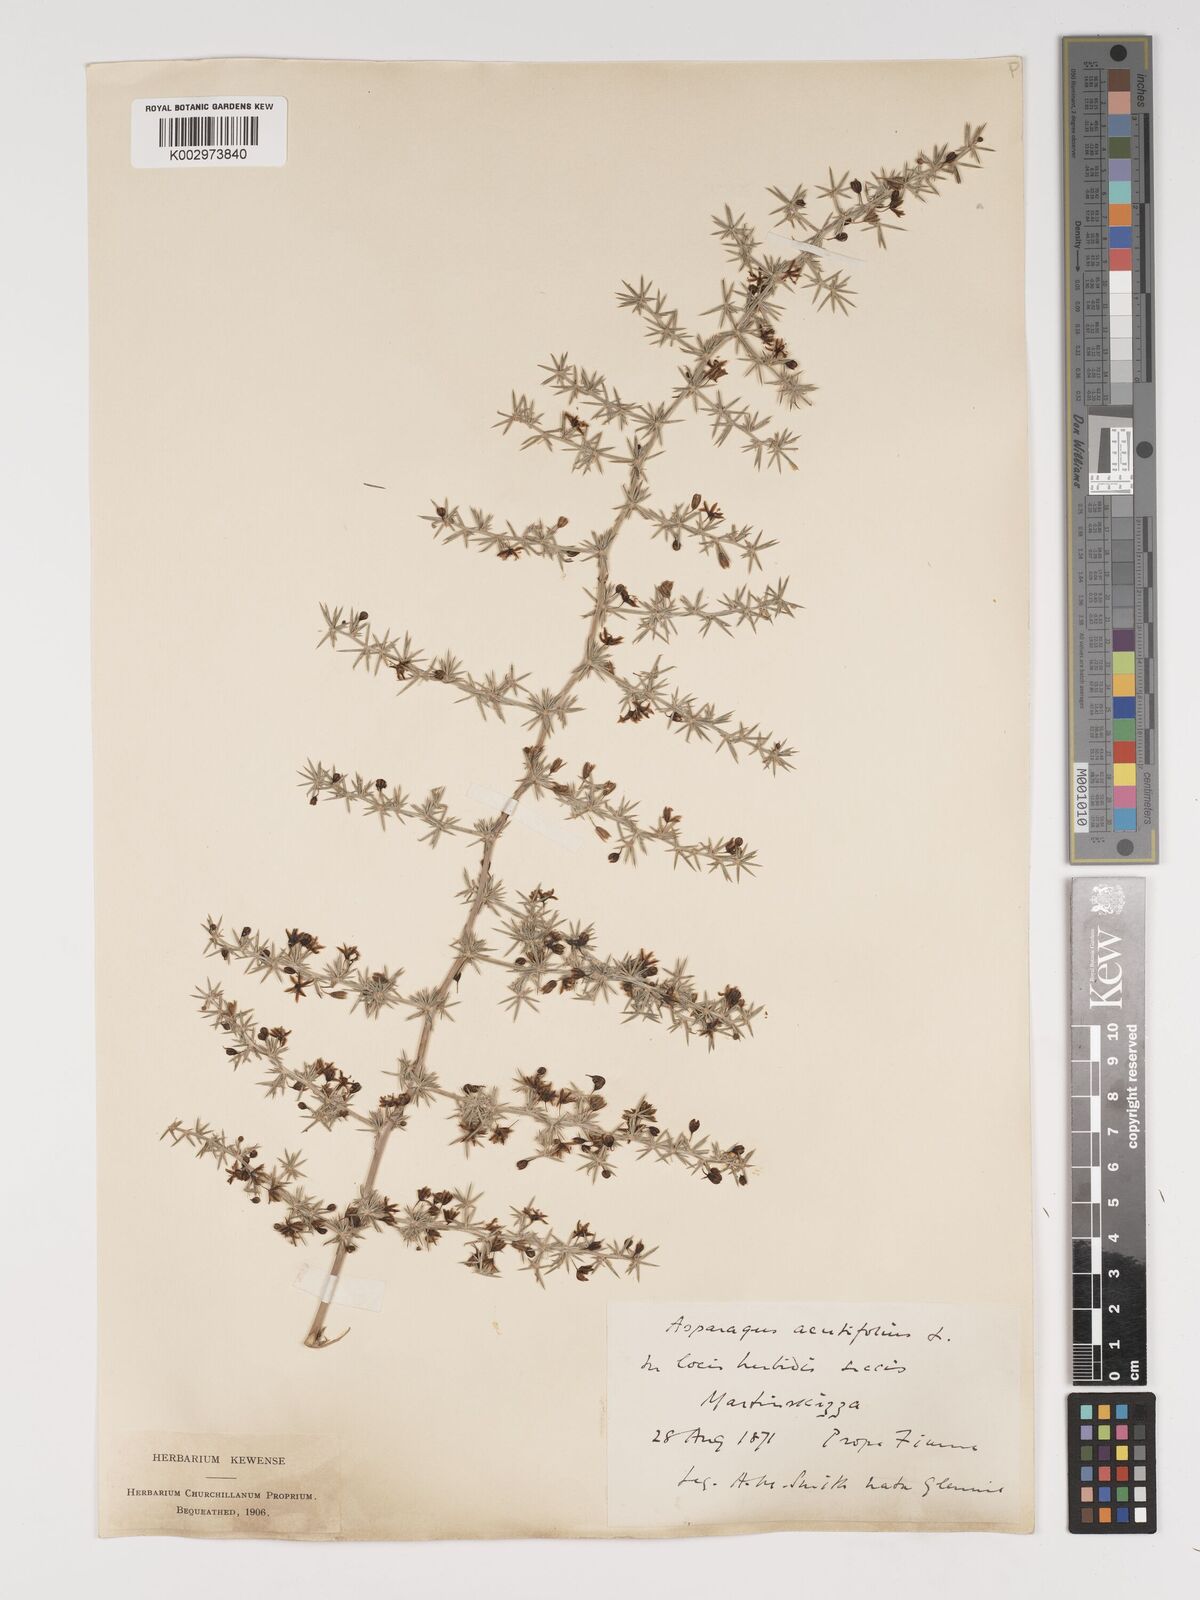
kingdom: Plantae
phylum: Tracheophyta
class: Liliopsida
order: Asparagales
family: Asparagaceae
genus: Asparagus
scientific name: Asparagus acutifolius
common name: Wild asparagus
